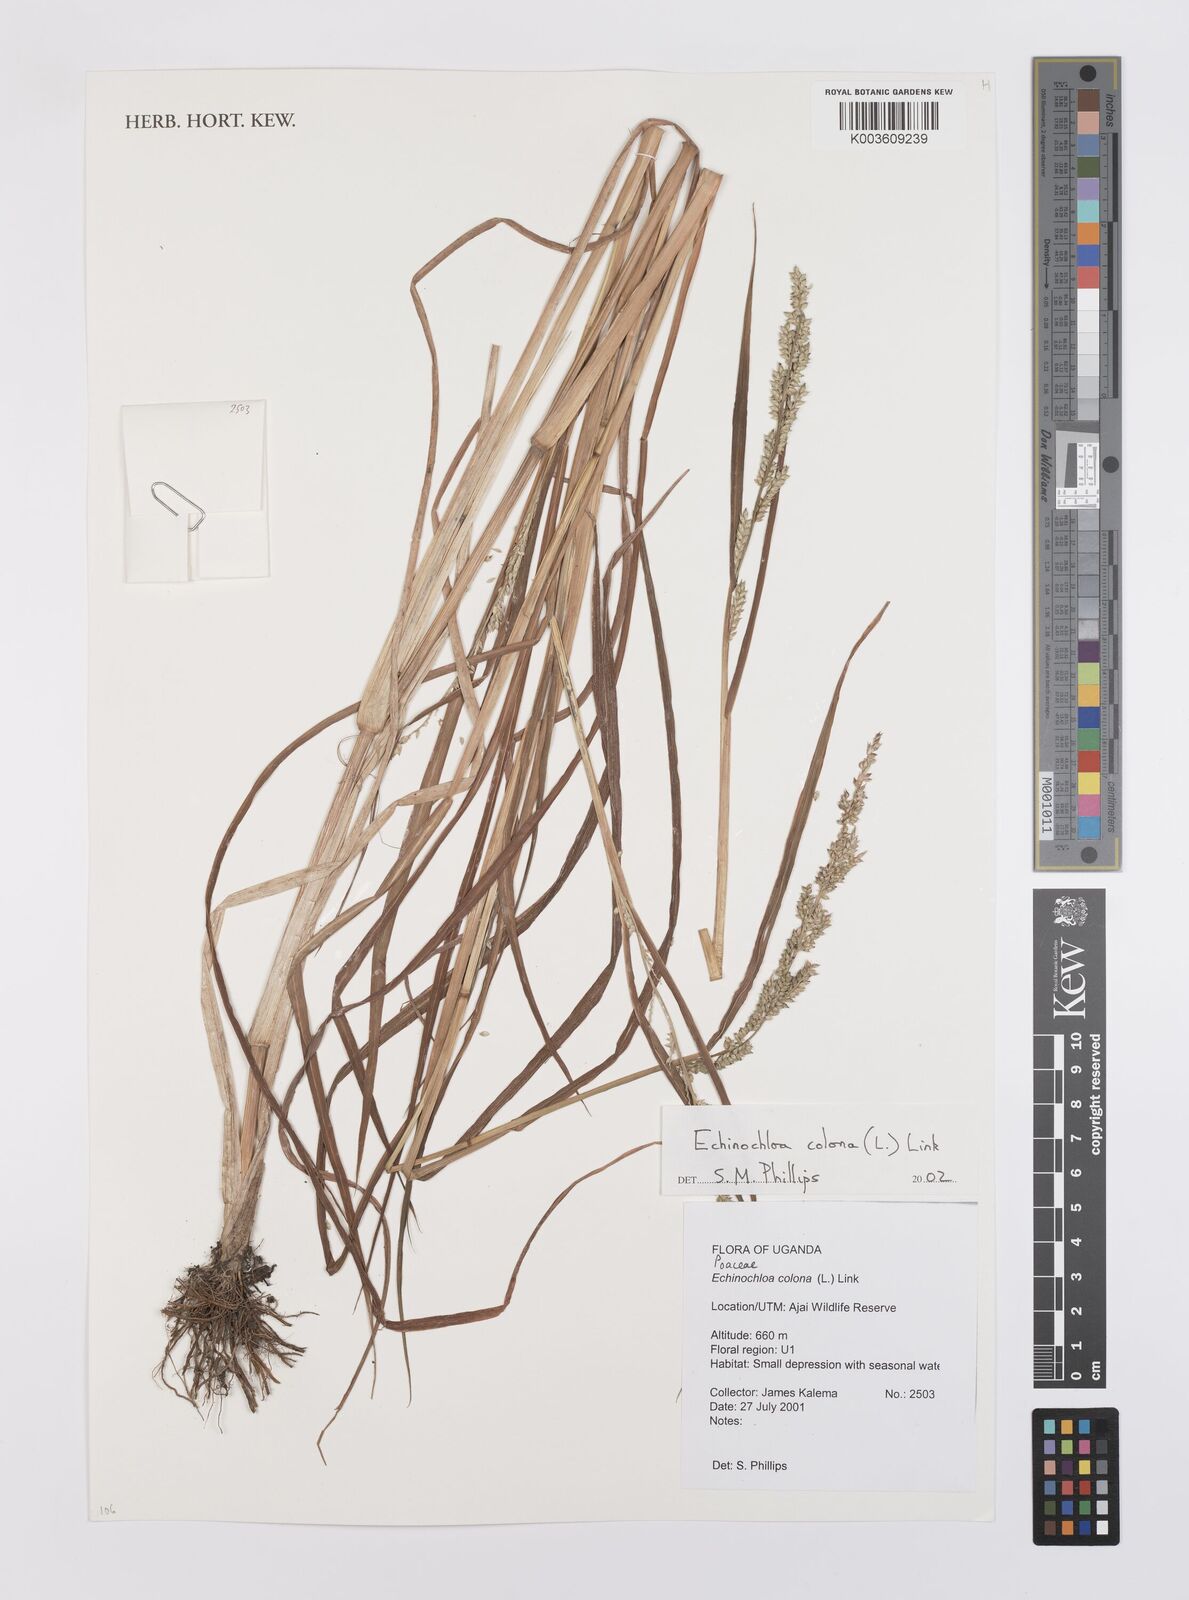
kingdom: Plantae
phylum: Tracheophyta
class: Liliopsida
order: Poales
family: Poaceae
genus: Echinochloa
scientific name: Echinochloa colonum
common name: Jungle rice
